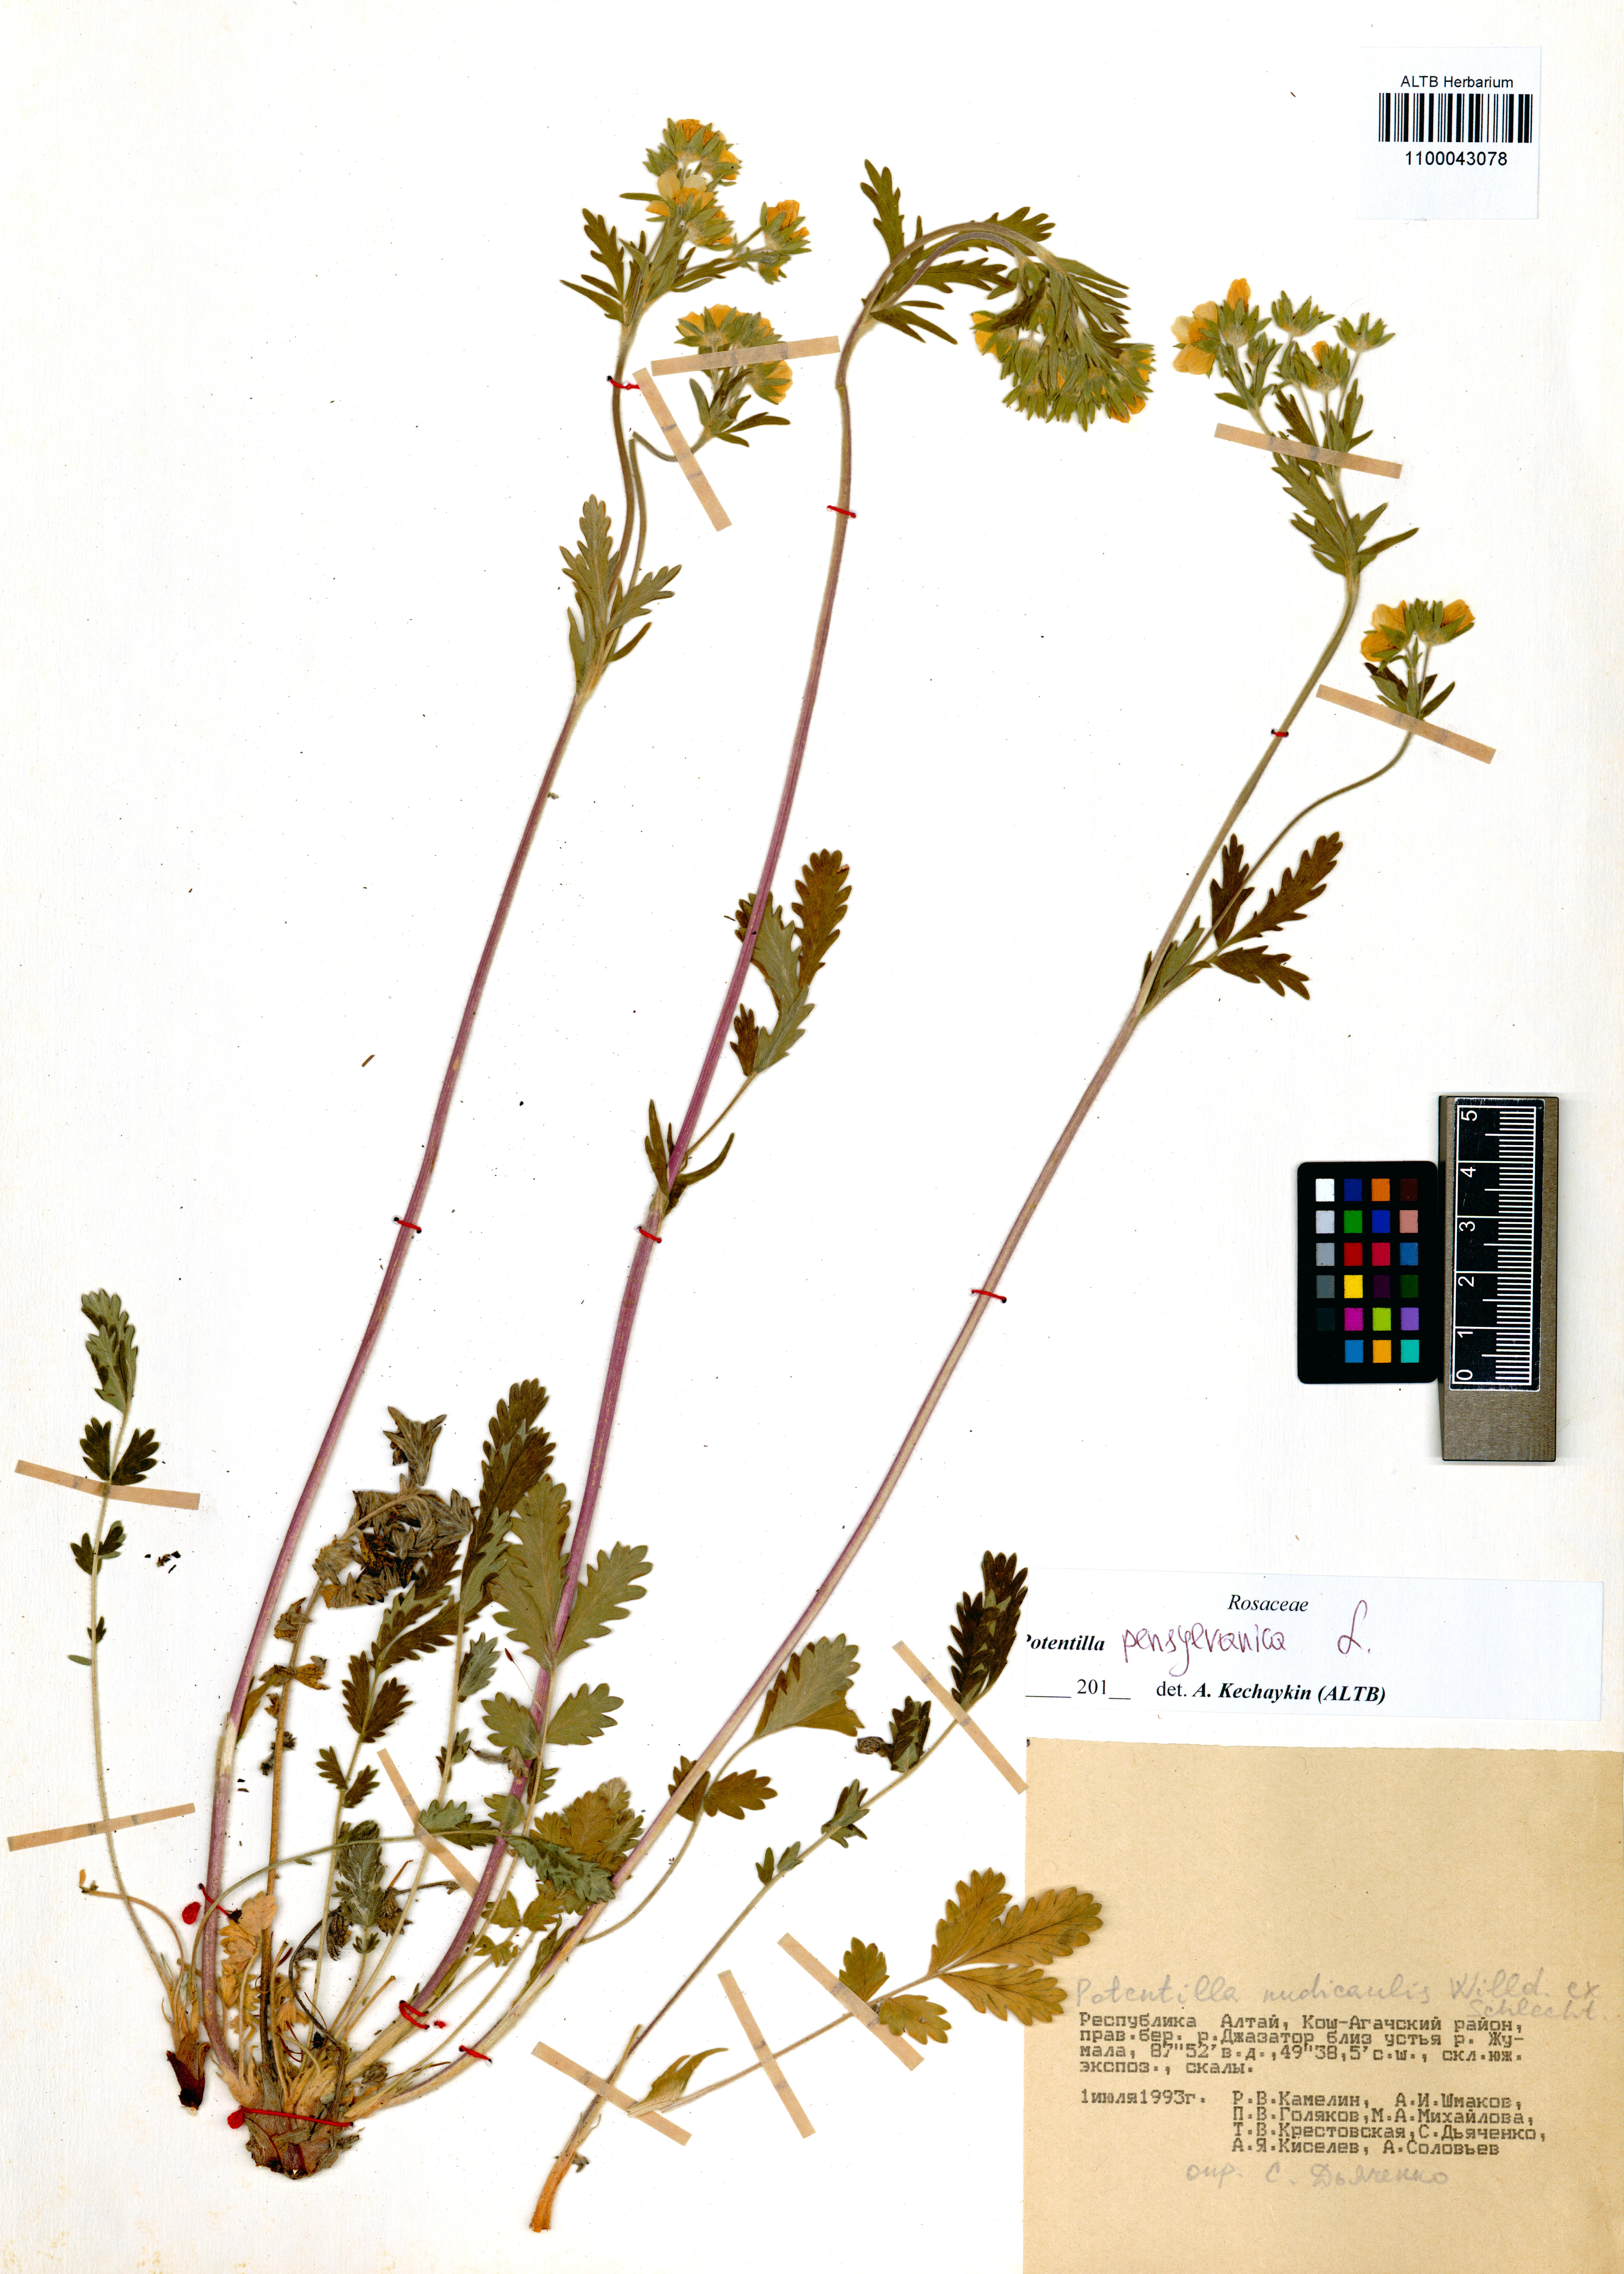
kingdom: Plantae
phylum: Tracheophyta
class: Magnoliopsida
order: Rosales
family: Rosaceae
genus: Potentilla
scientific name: Potentilla pensylvanica
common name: Pennsylvania cinquefoil
